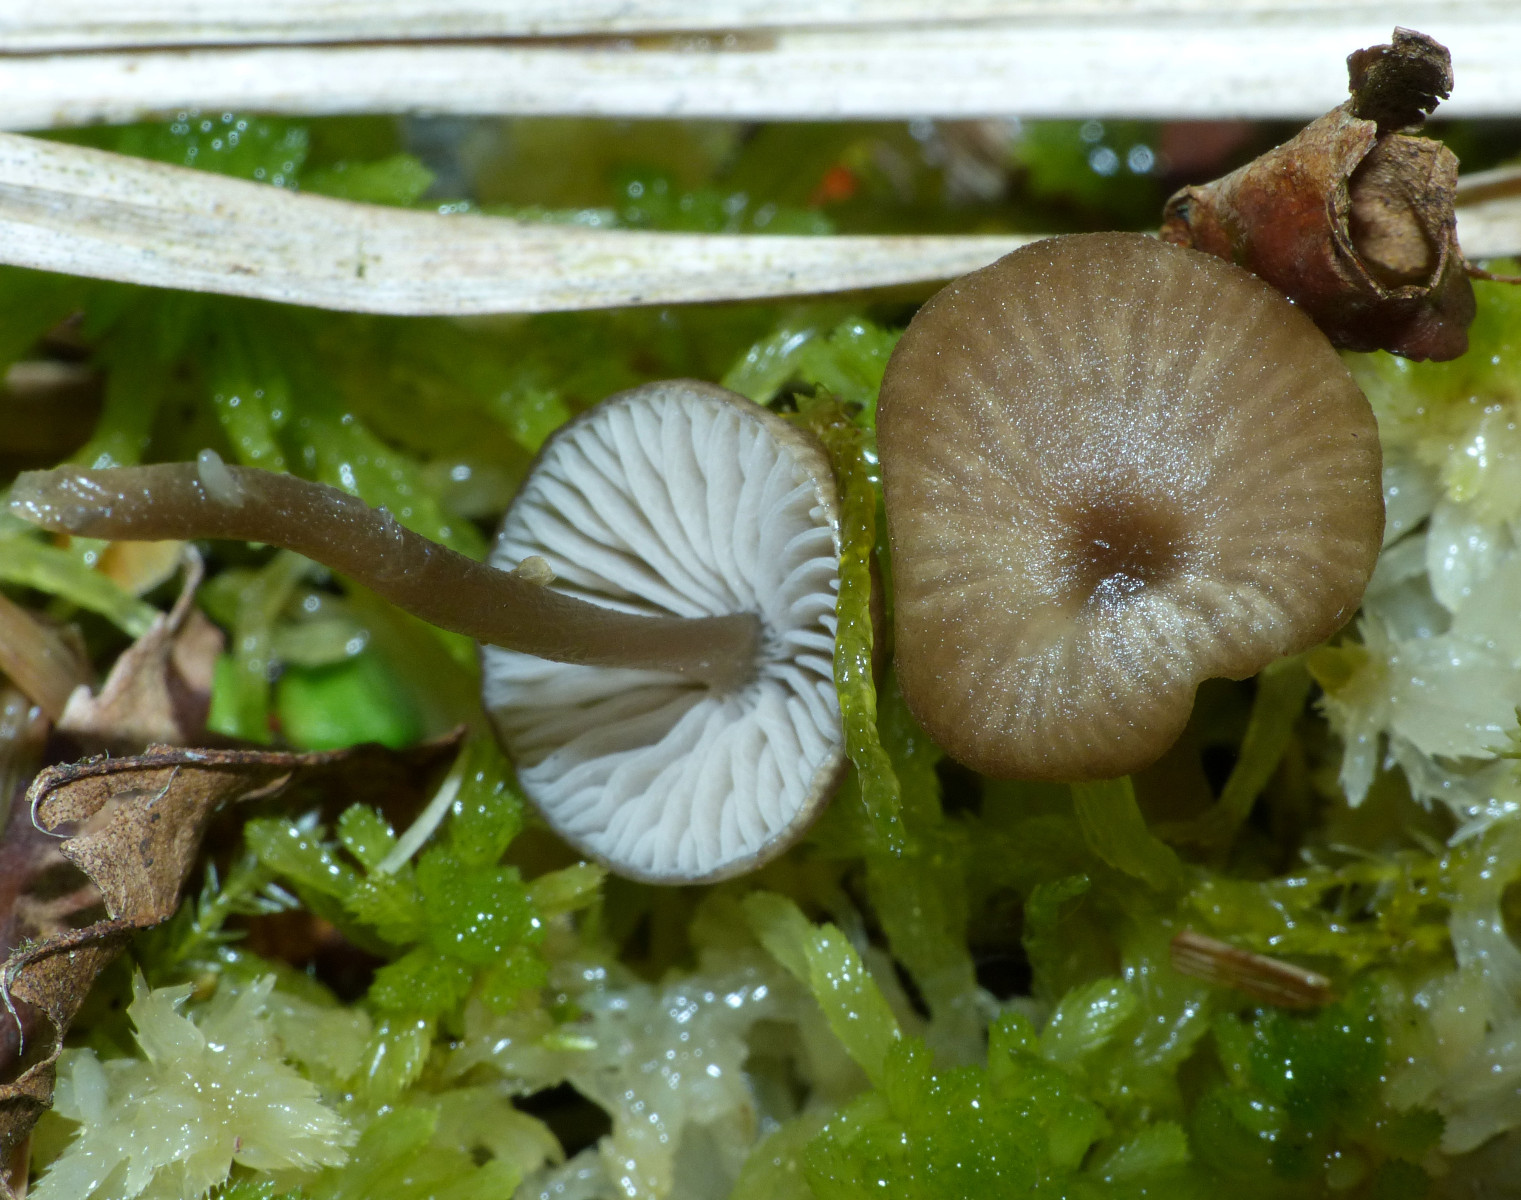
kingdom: Fungi
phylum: Basidiomycota
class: Agaricomycetes
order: Agaricales
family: Lyophyllaceae
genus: Sphagnurus
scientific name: Sphagnurus paluster
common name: tørvemos-gråblad
